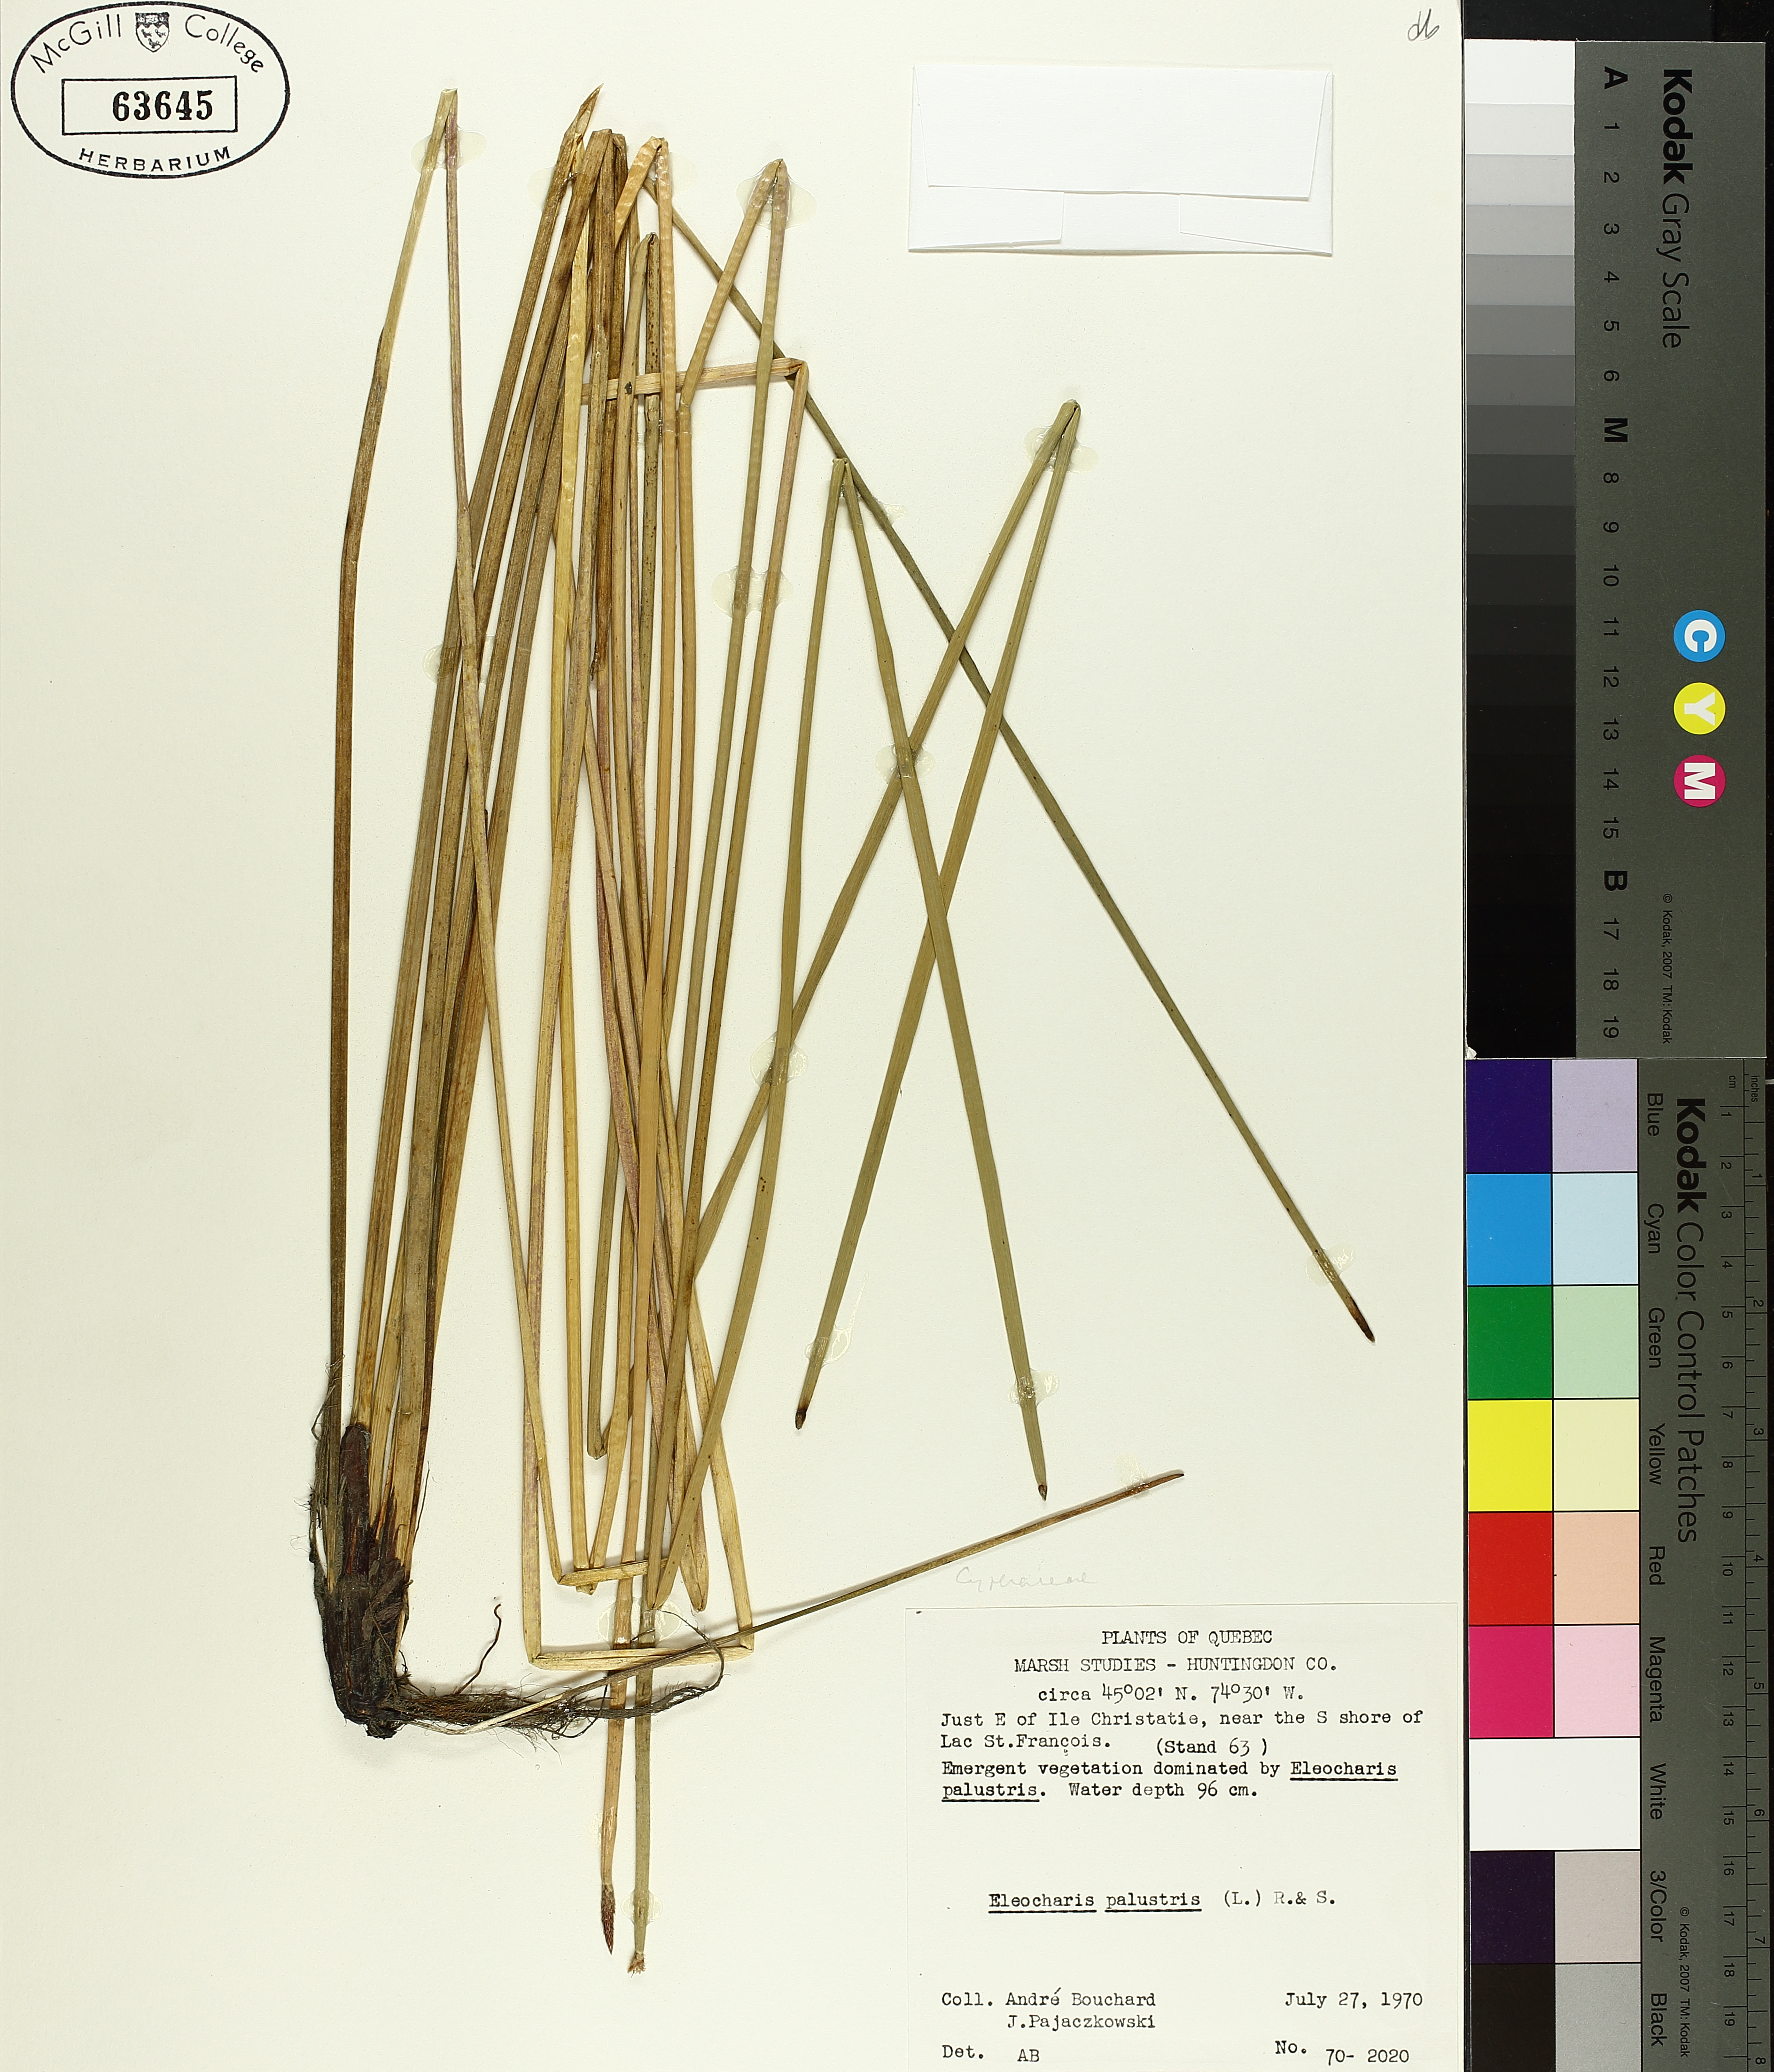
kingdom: Plantae
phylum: Tracheophyta
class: Liliopsida
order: Poales
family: Cyperaceae
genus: Eleocharis
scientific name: Eleocharis palustris
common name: Common spike-rush
